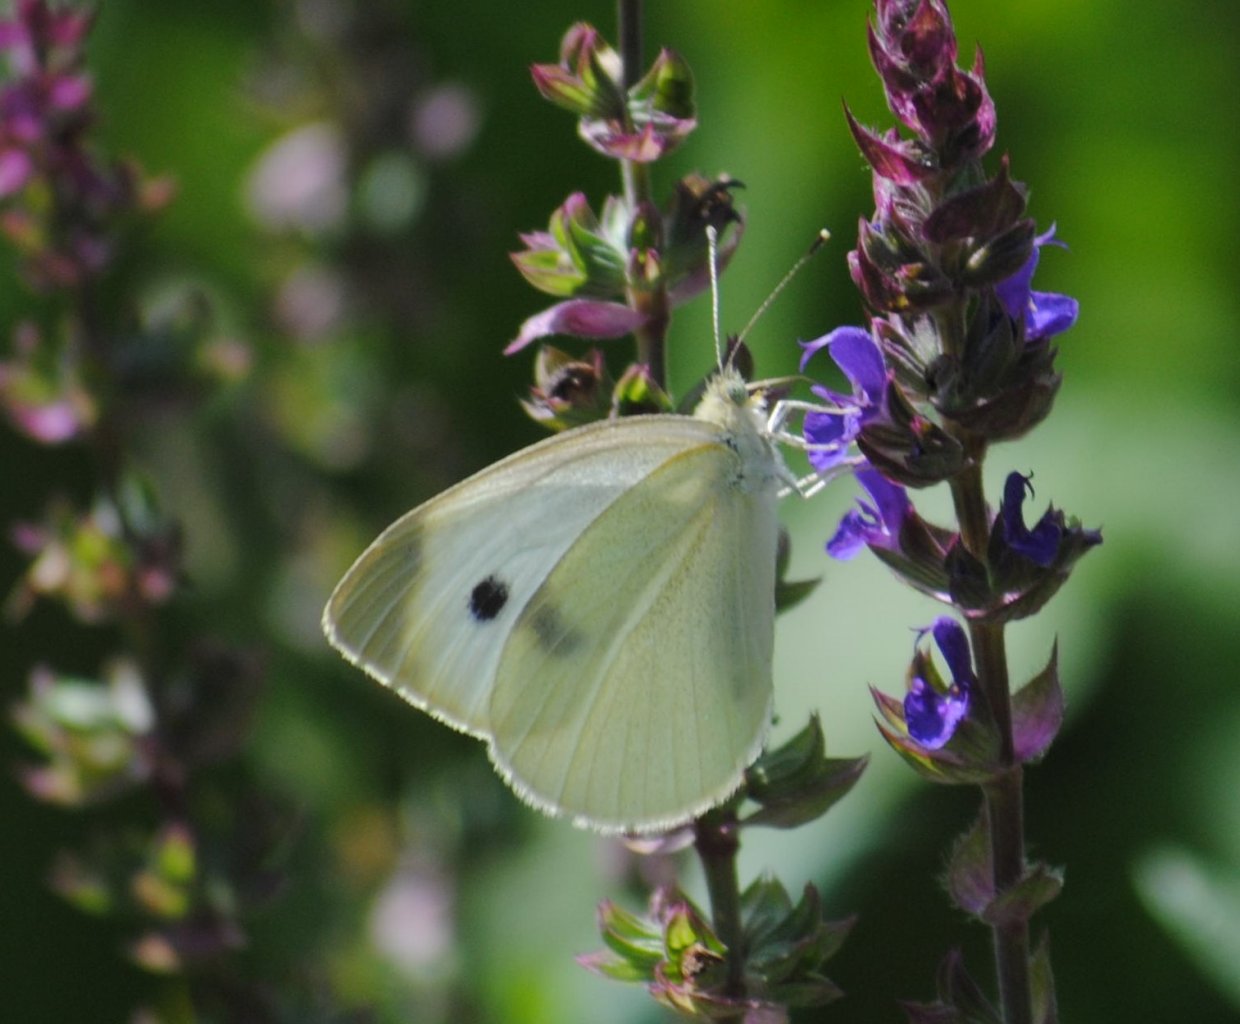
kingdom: Animalia
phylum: Arthropoda
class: Insecta
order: Lepidoptera
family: Pieridae
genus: Pieris
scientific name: Pieris rapae
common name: Cabbage White
